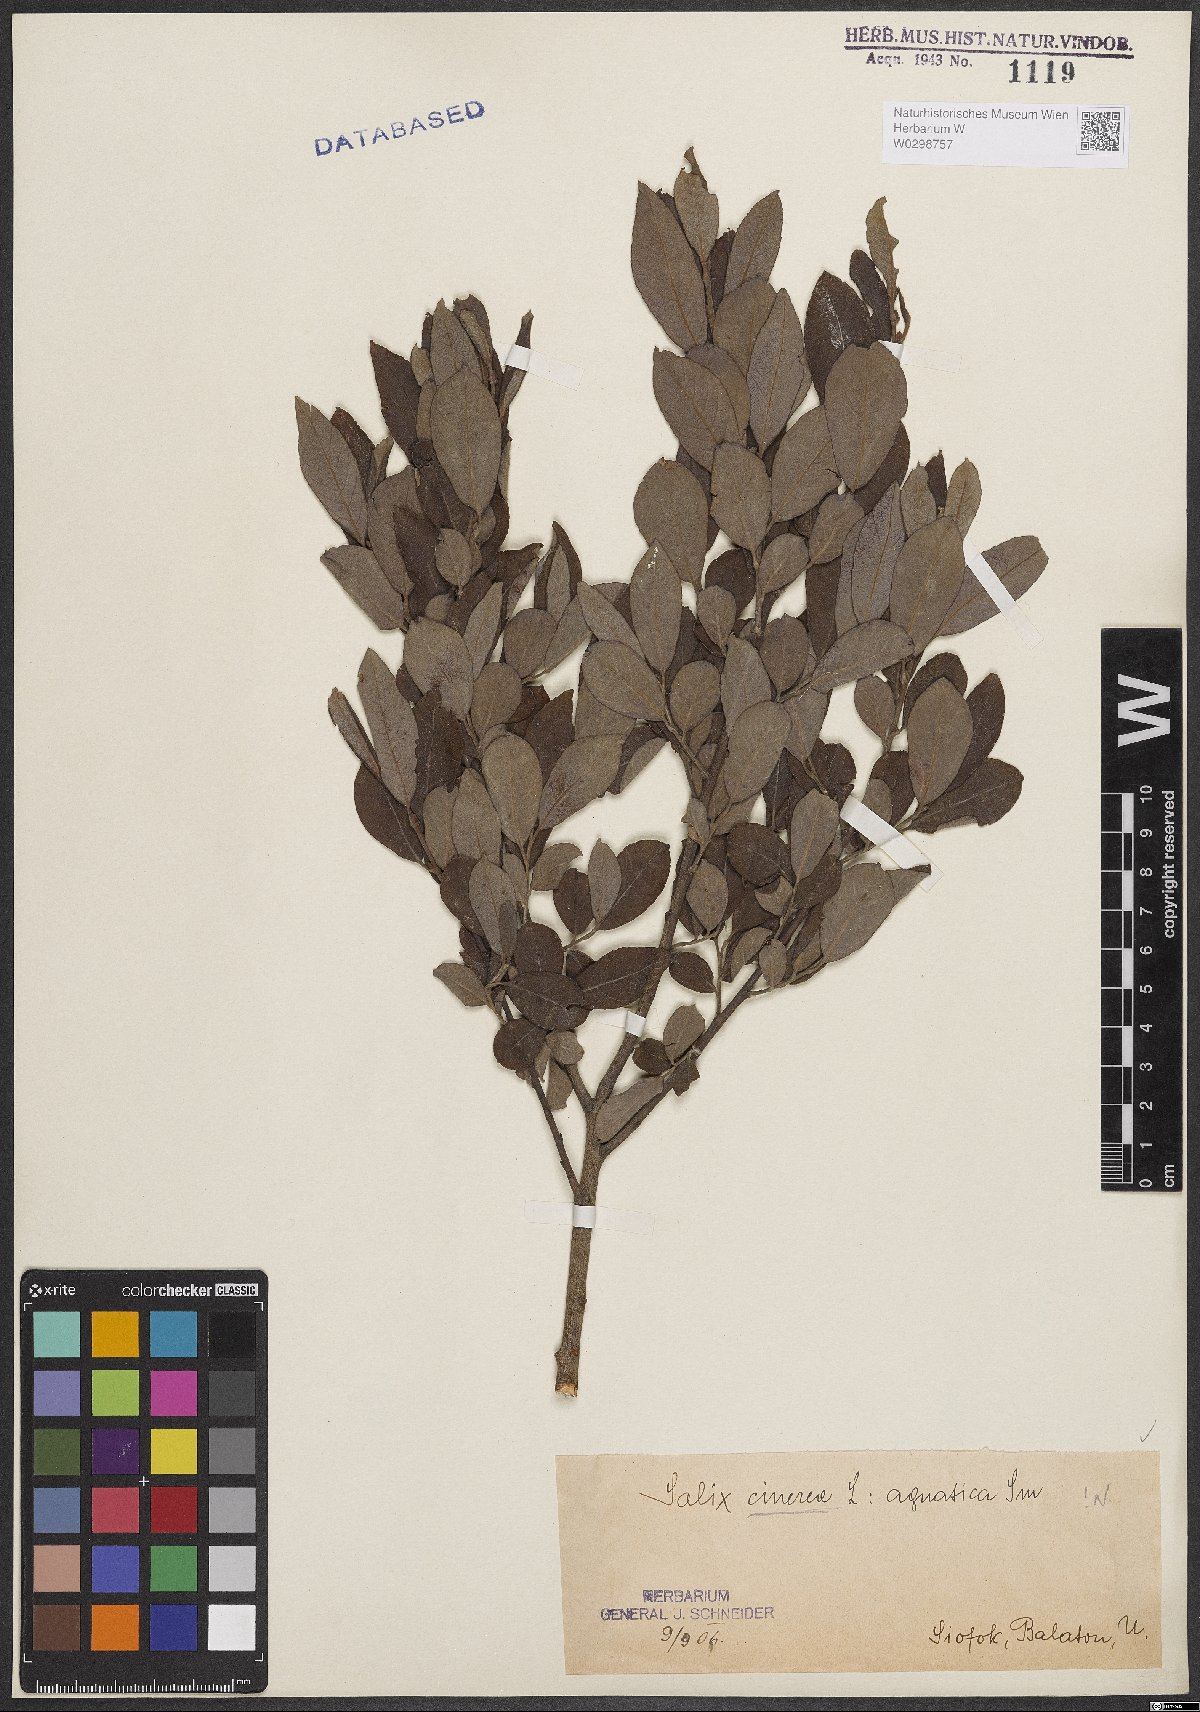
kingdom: Plantae
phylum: Tracheophyta
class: Magnoliopsida
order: Malpighiales
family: Salicaceae
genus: Salix
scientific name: Salix cinerea
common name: Common sallow
